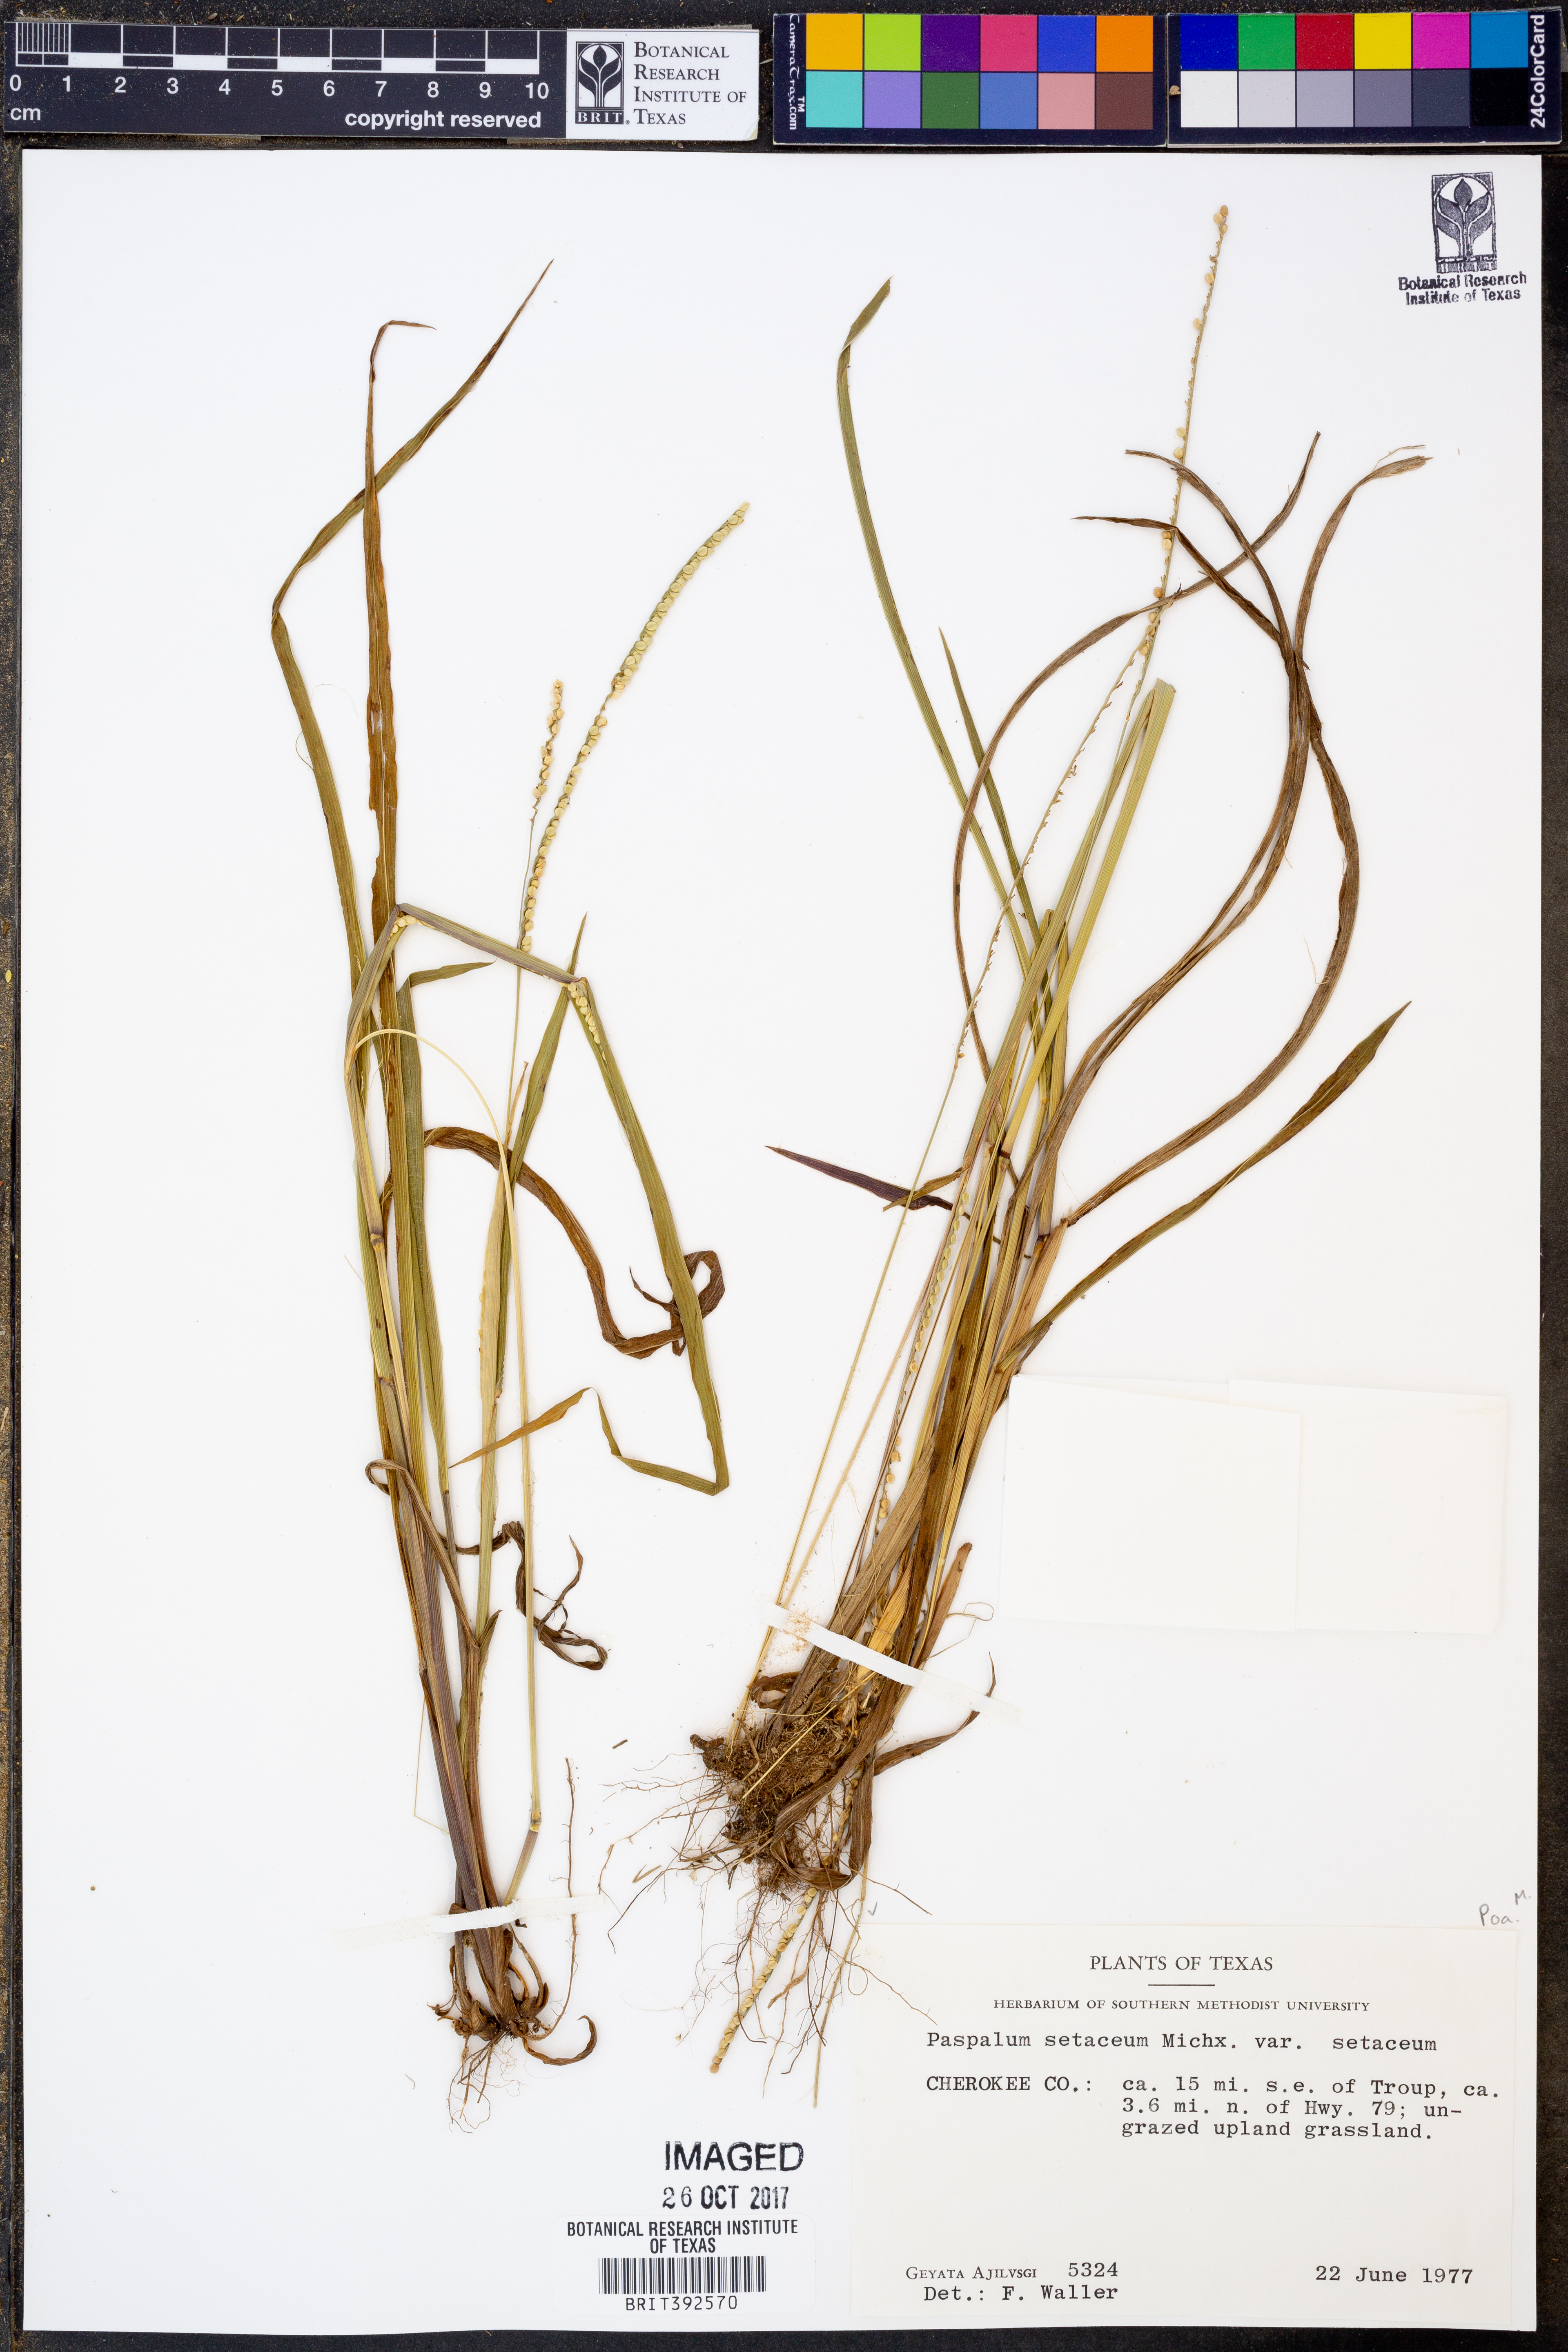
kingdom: Plantae
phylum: Tracheophyta
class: Liliopsida
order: Poales
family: Poaceae
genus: Paspalum
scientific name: Paspalum setaceum
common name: Slender paspalum
